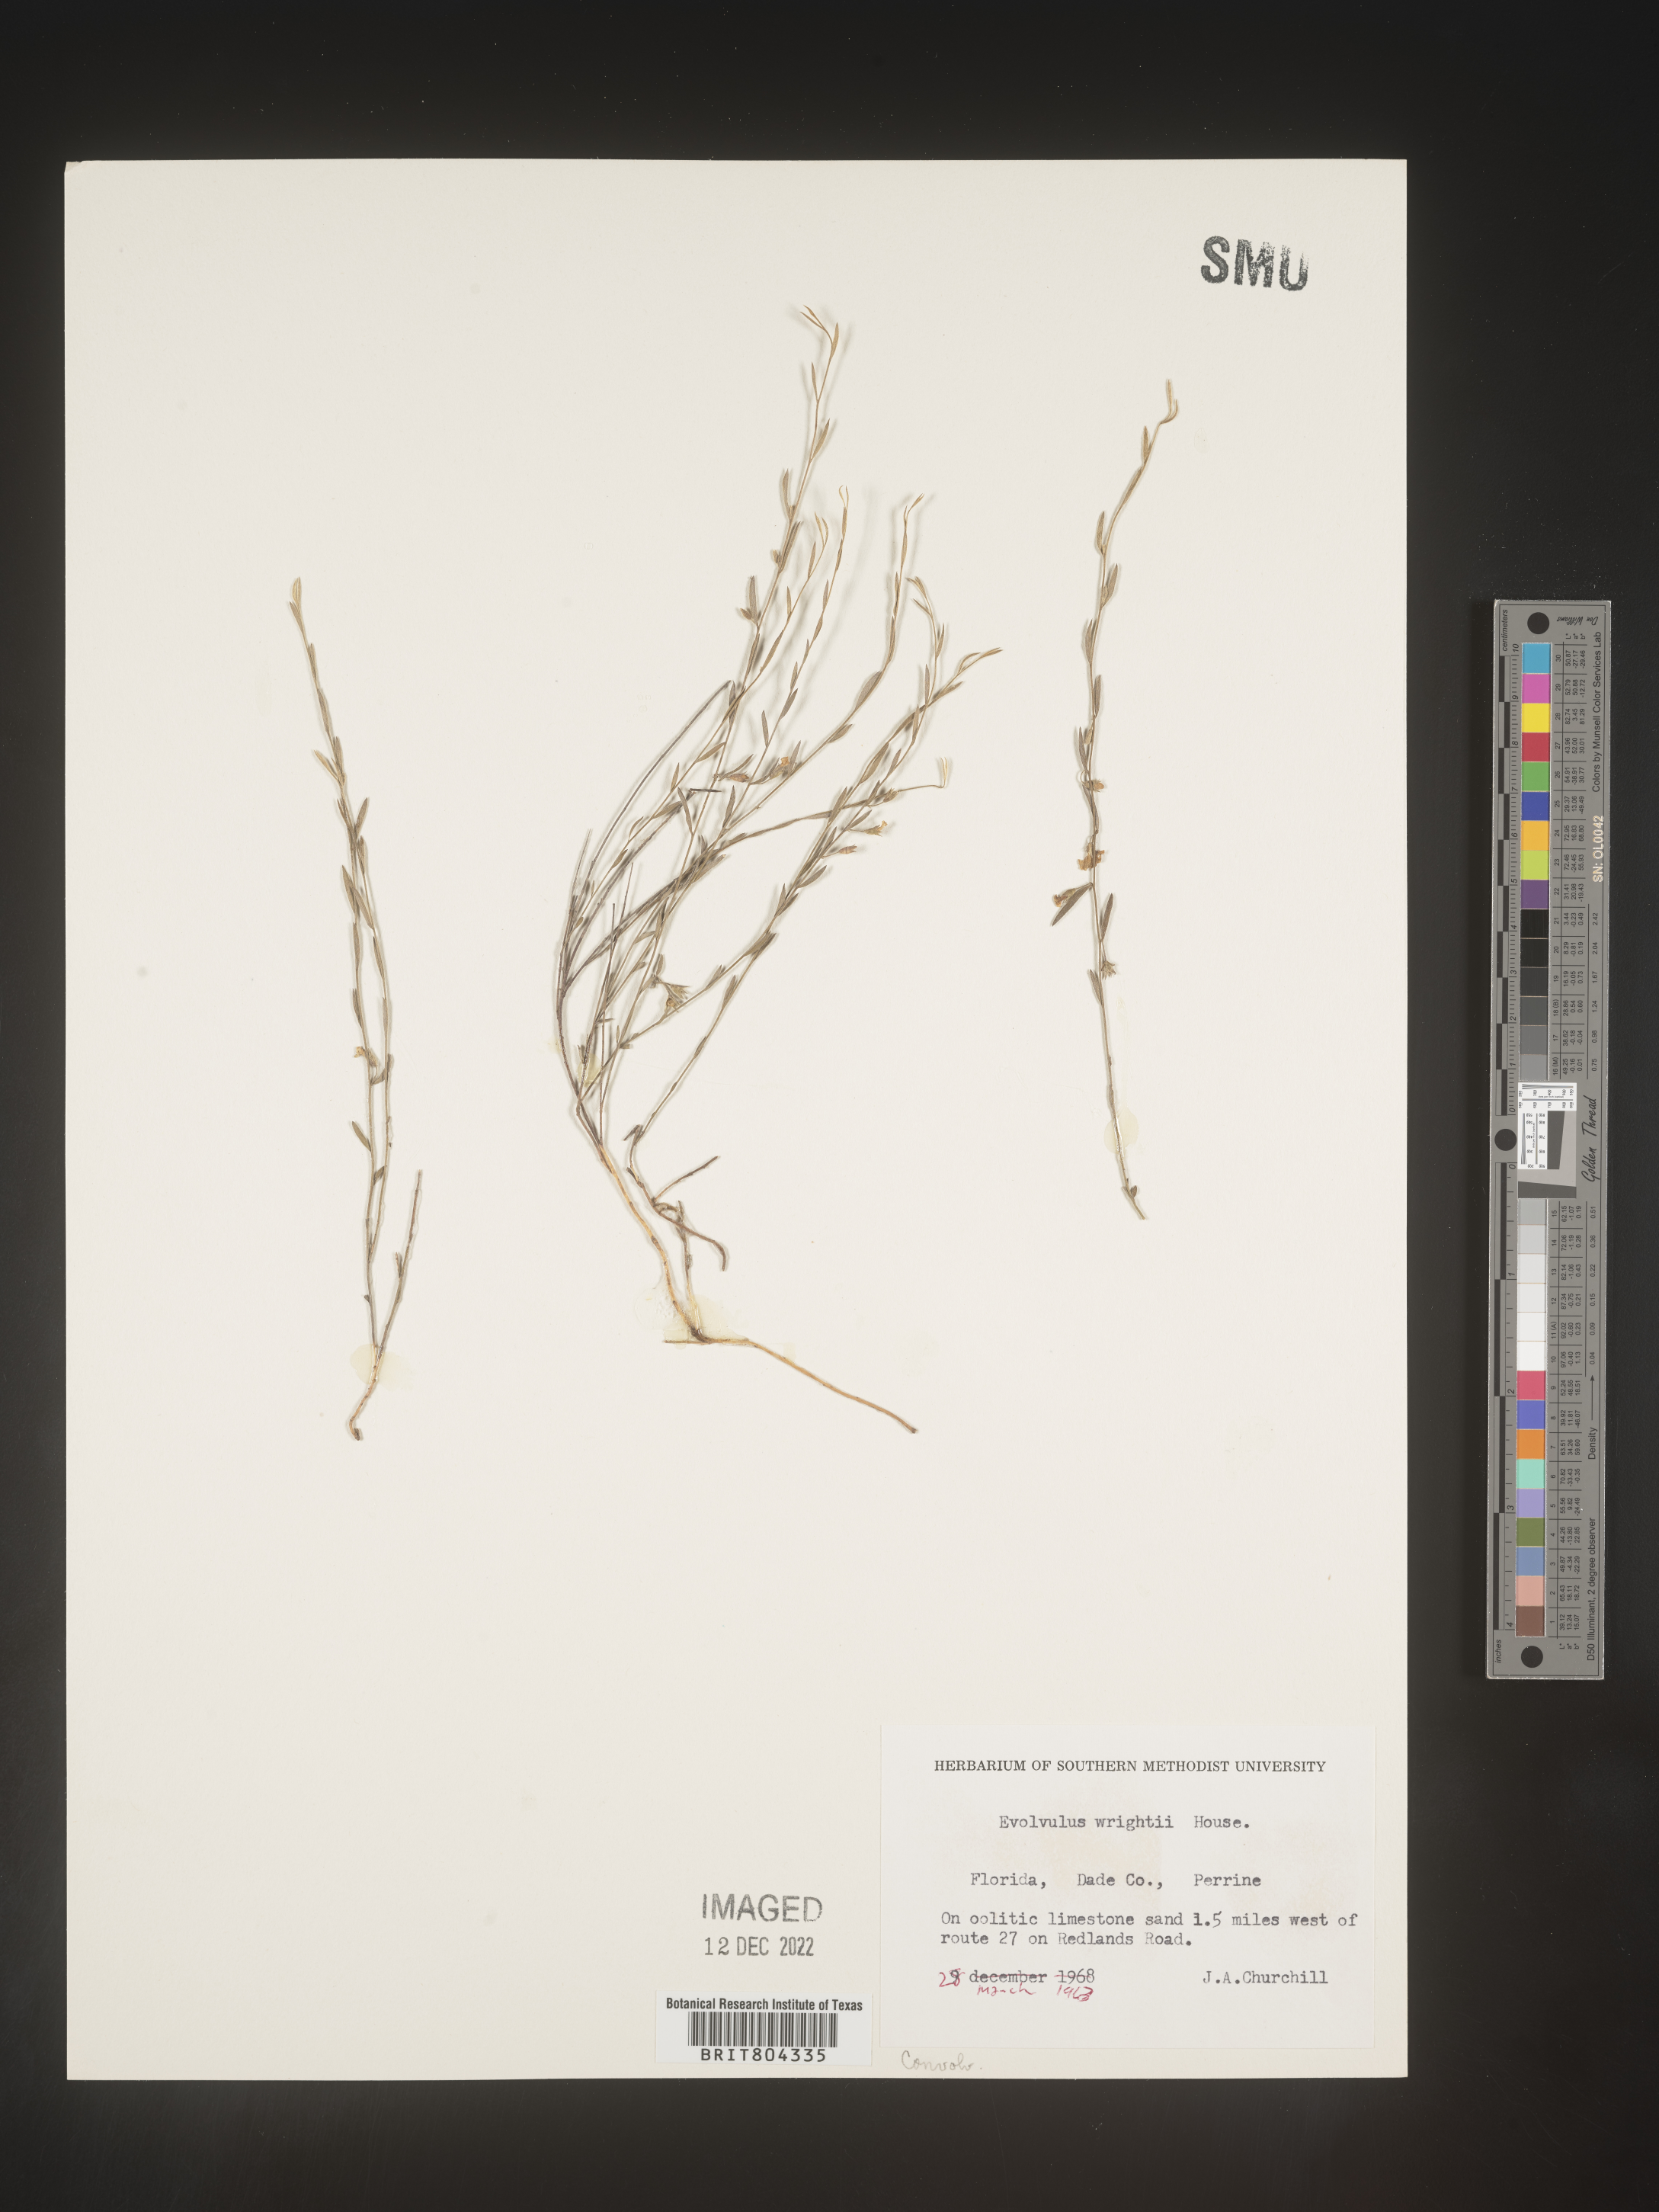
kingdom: Plantae
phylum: Tracheophyta
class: Magnoliopsida
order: Solanales
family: Convolvulaceae
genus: Evolvulus
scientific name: Evolvulus grisebachii
